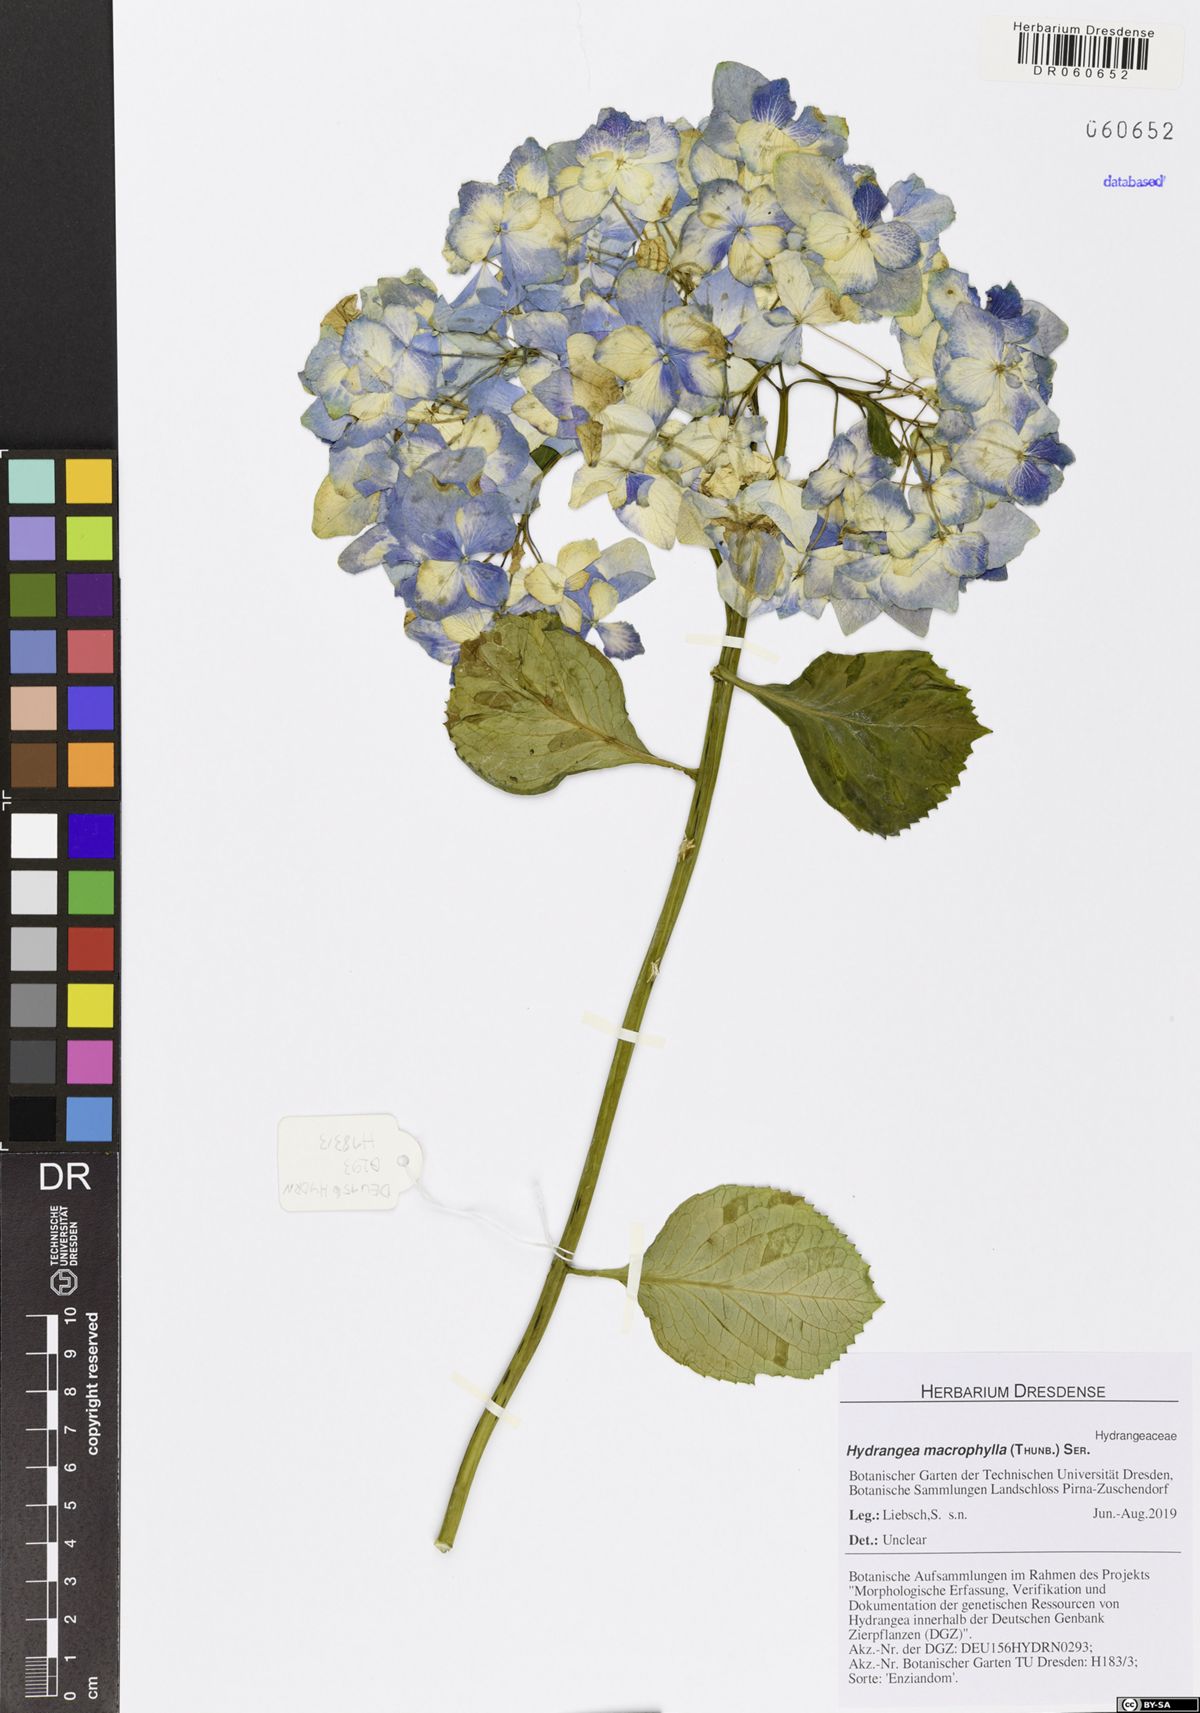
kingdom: Plantae
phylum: Tracheophyta
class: Magnoliopsida
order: Cornales
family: Hydrangeaceae
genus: Hydrangea
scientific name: Hydrangea macrophylla
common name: Hydrangea
